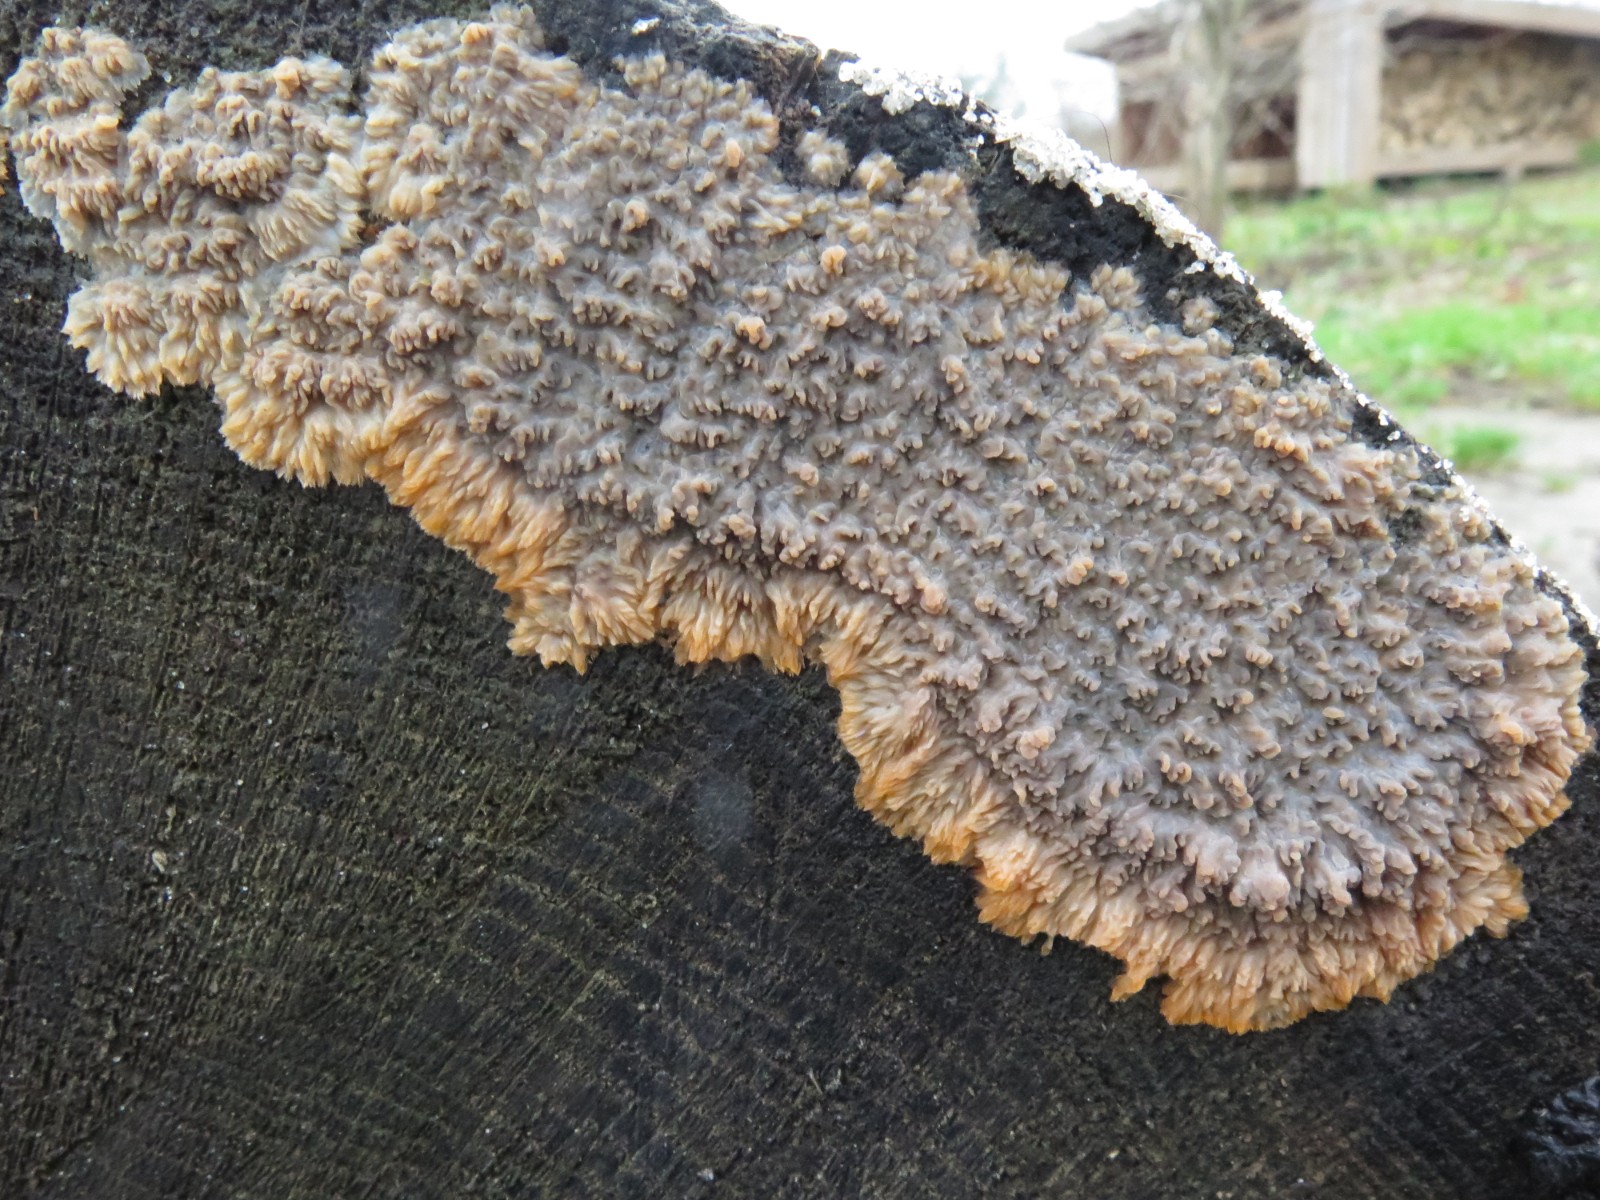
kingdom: Fungi
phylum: Basidiomycota
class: Agaricomycetes
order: Polyporales
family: Meruliaceae
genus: Phlebia
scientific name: Phlebia radiata
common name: stråle-åresvamp
